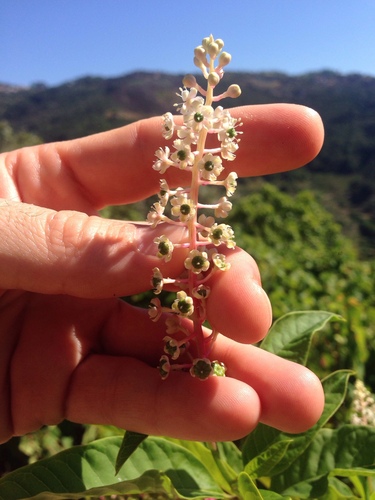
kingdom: Plantae
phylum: Tracheophyta
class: Magnoliopsida
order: Caryophyllales
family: Phytolaccaceae
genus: Phytolacca
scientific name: Phytolacca americana
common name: American pokeweed
